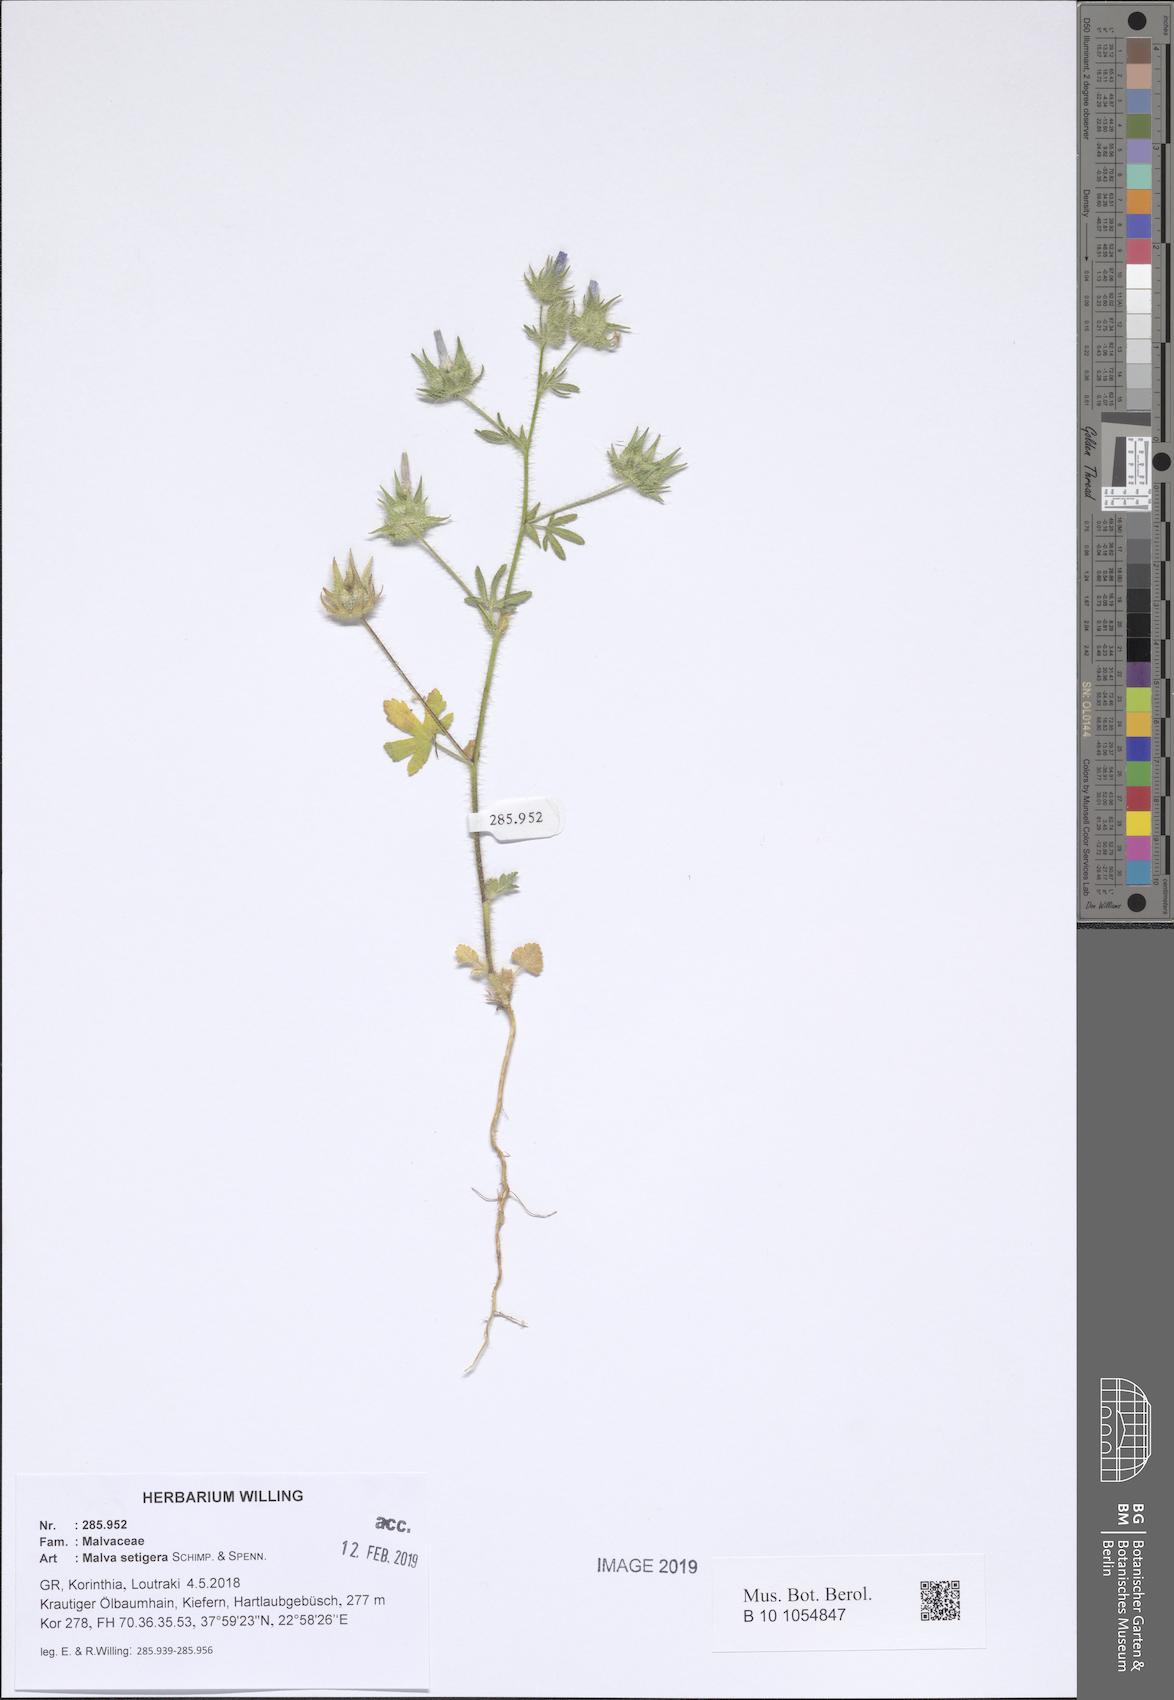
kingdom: Plantae
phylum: Tracheophyta
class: Magnoliopsida
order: Malvales
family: Malvaceae
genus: Althaea
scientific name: Althaea hirsuta
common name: Rough marsh-mallow
